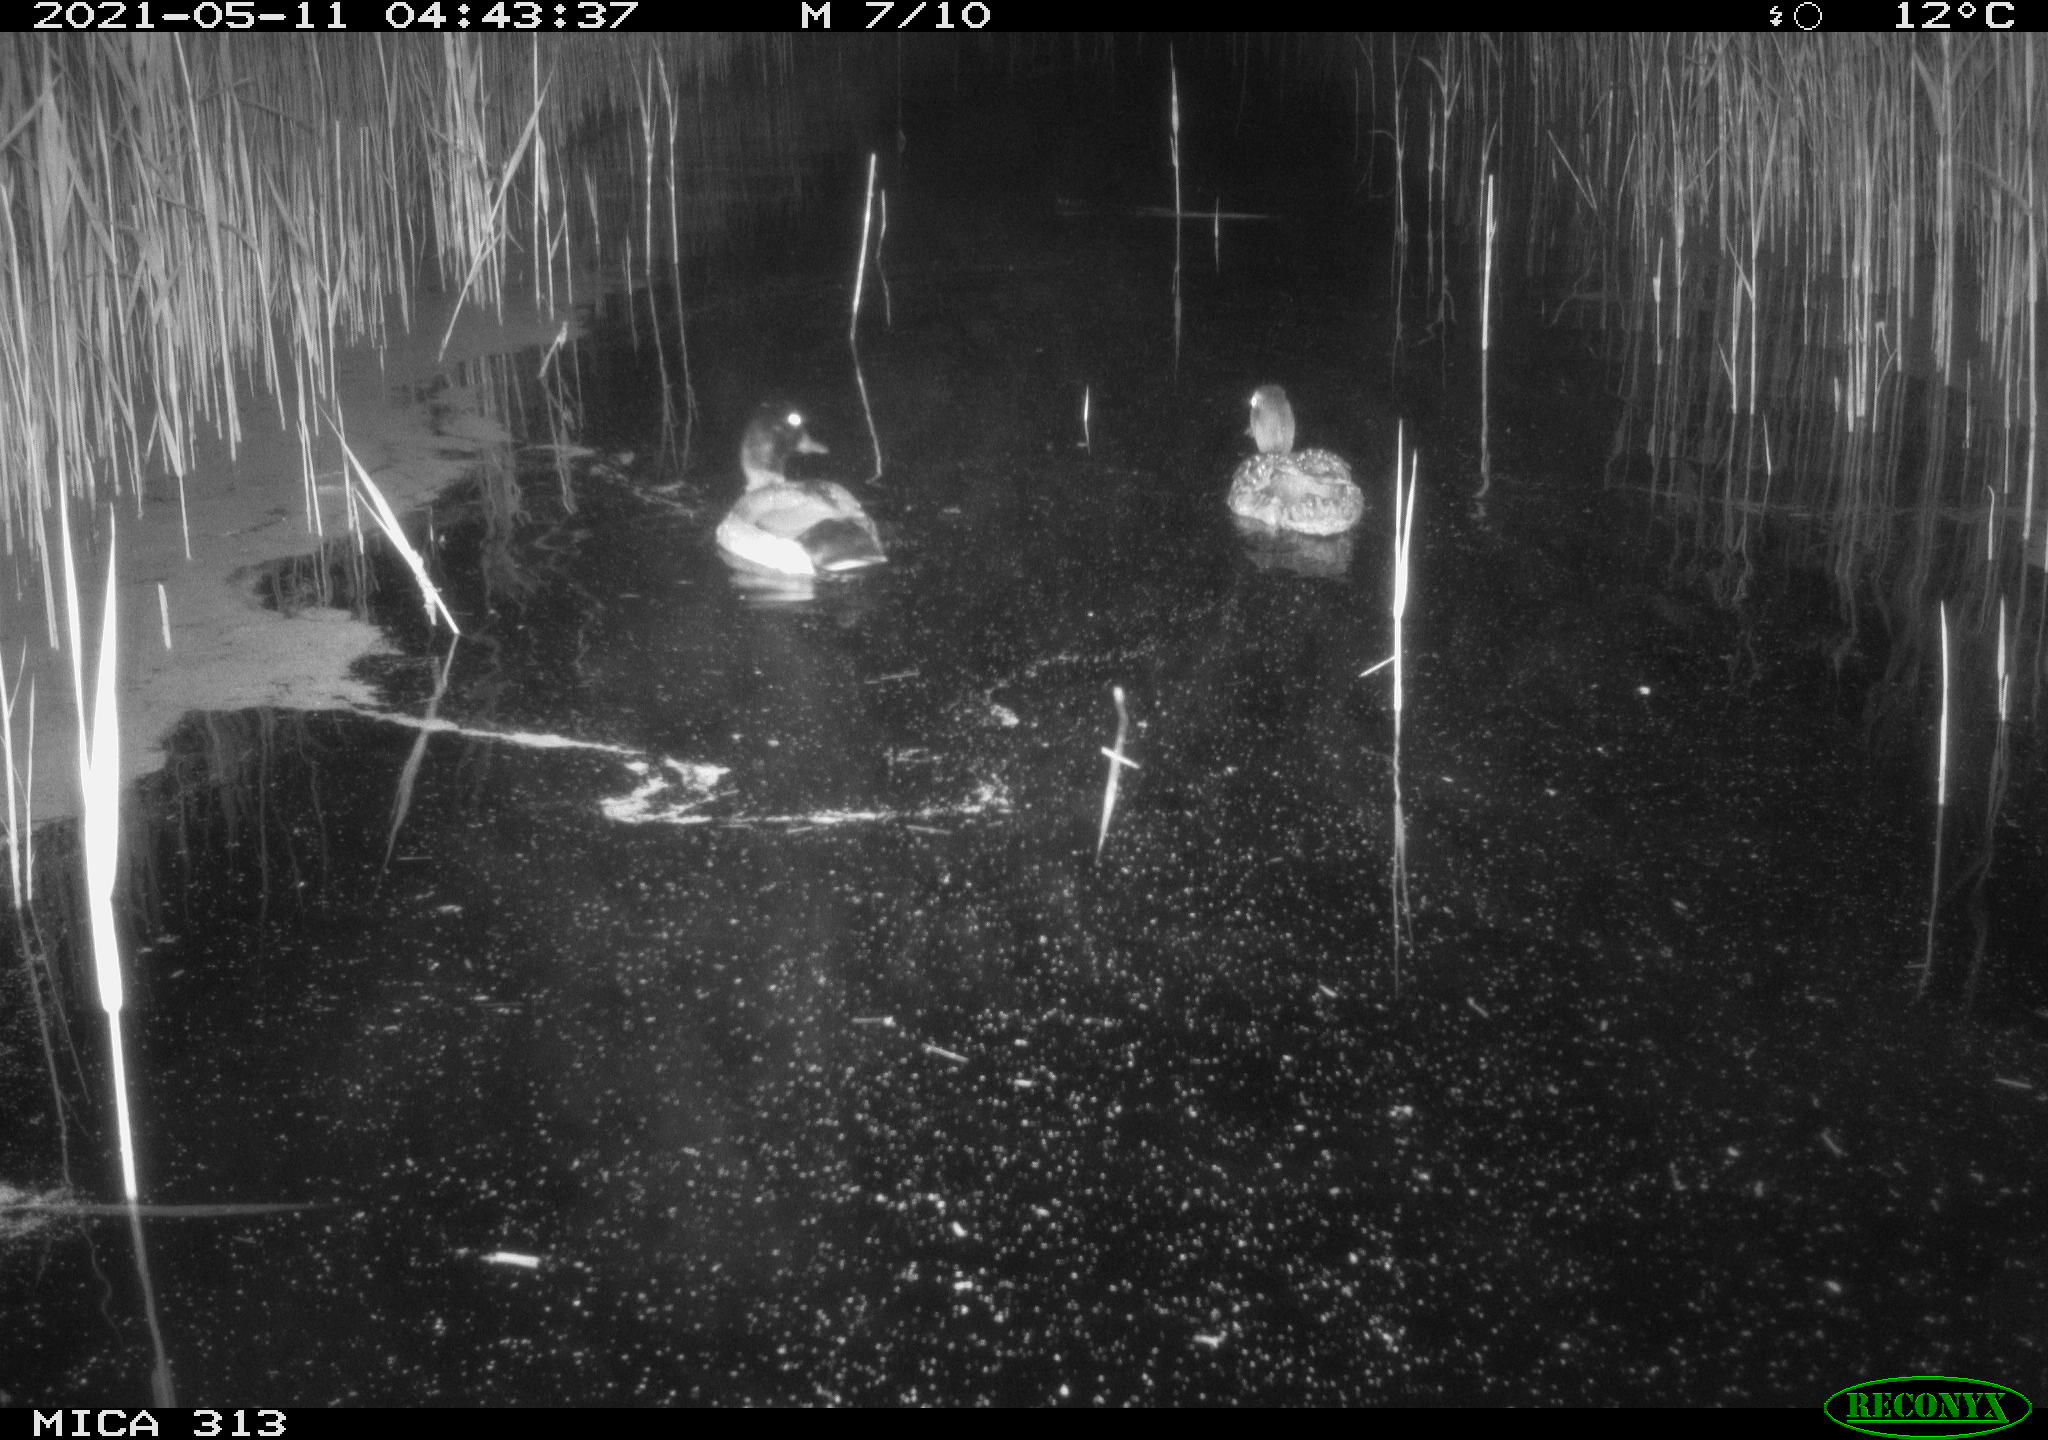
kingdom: Animalia
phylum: Chordata
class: Aves
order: Anseriformes
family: Anatidae
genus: Anas
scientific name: Anas platyrhynchos
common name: Mallard
